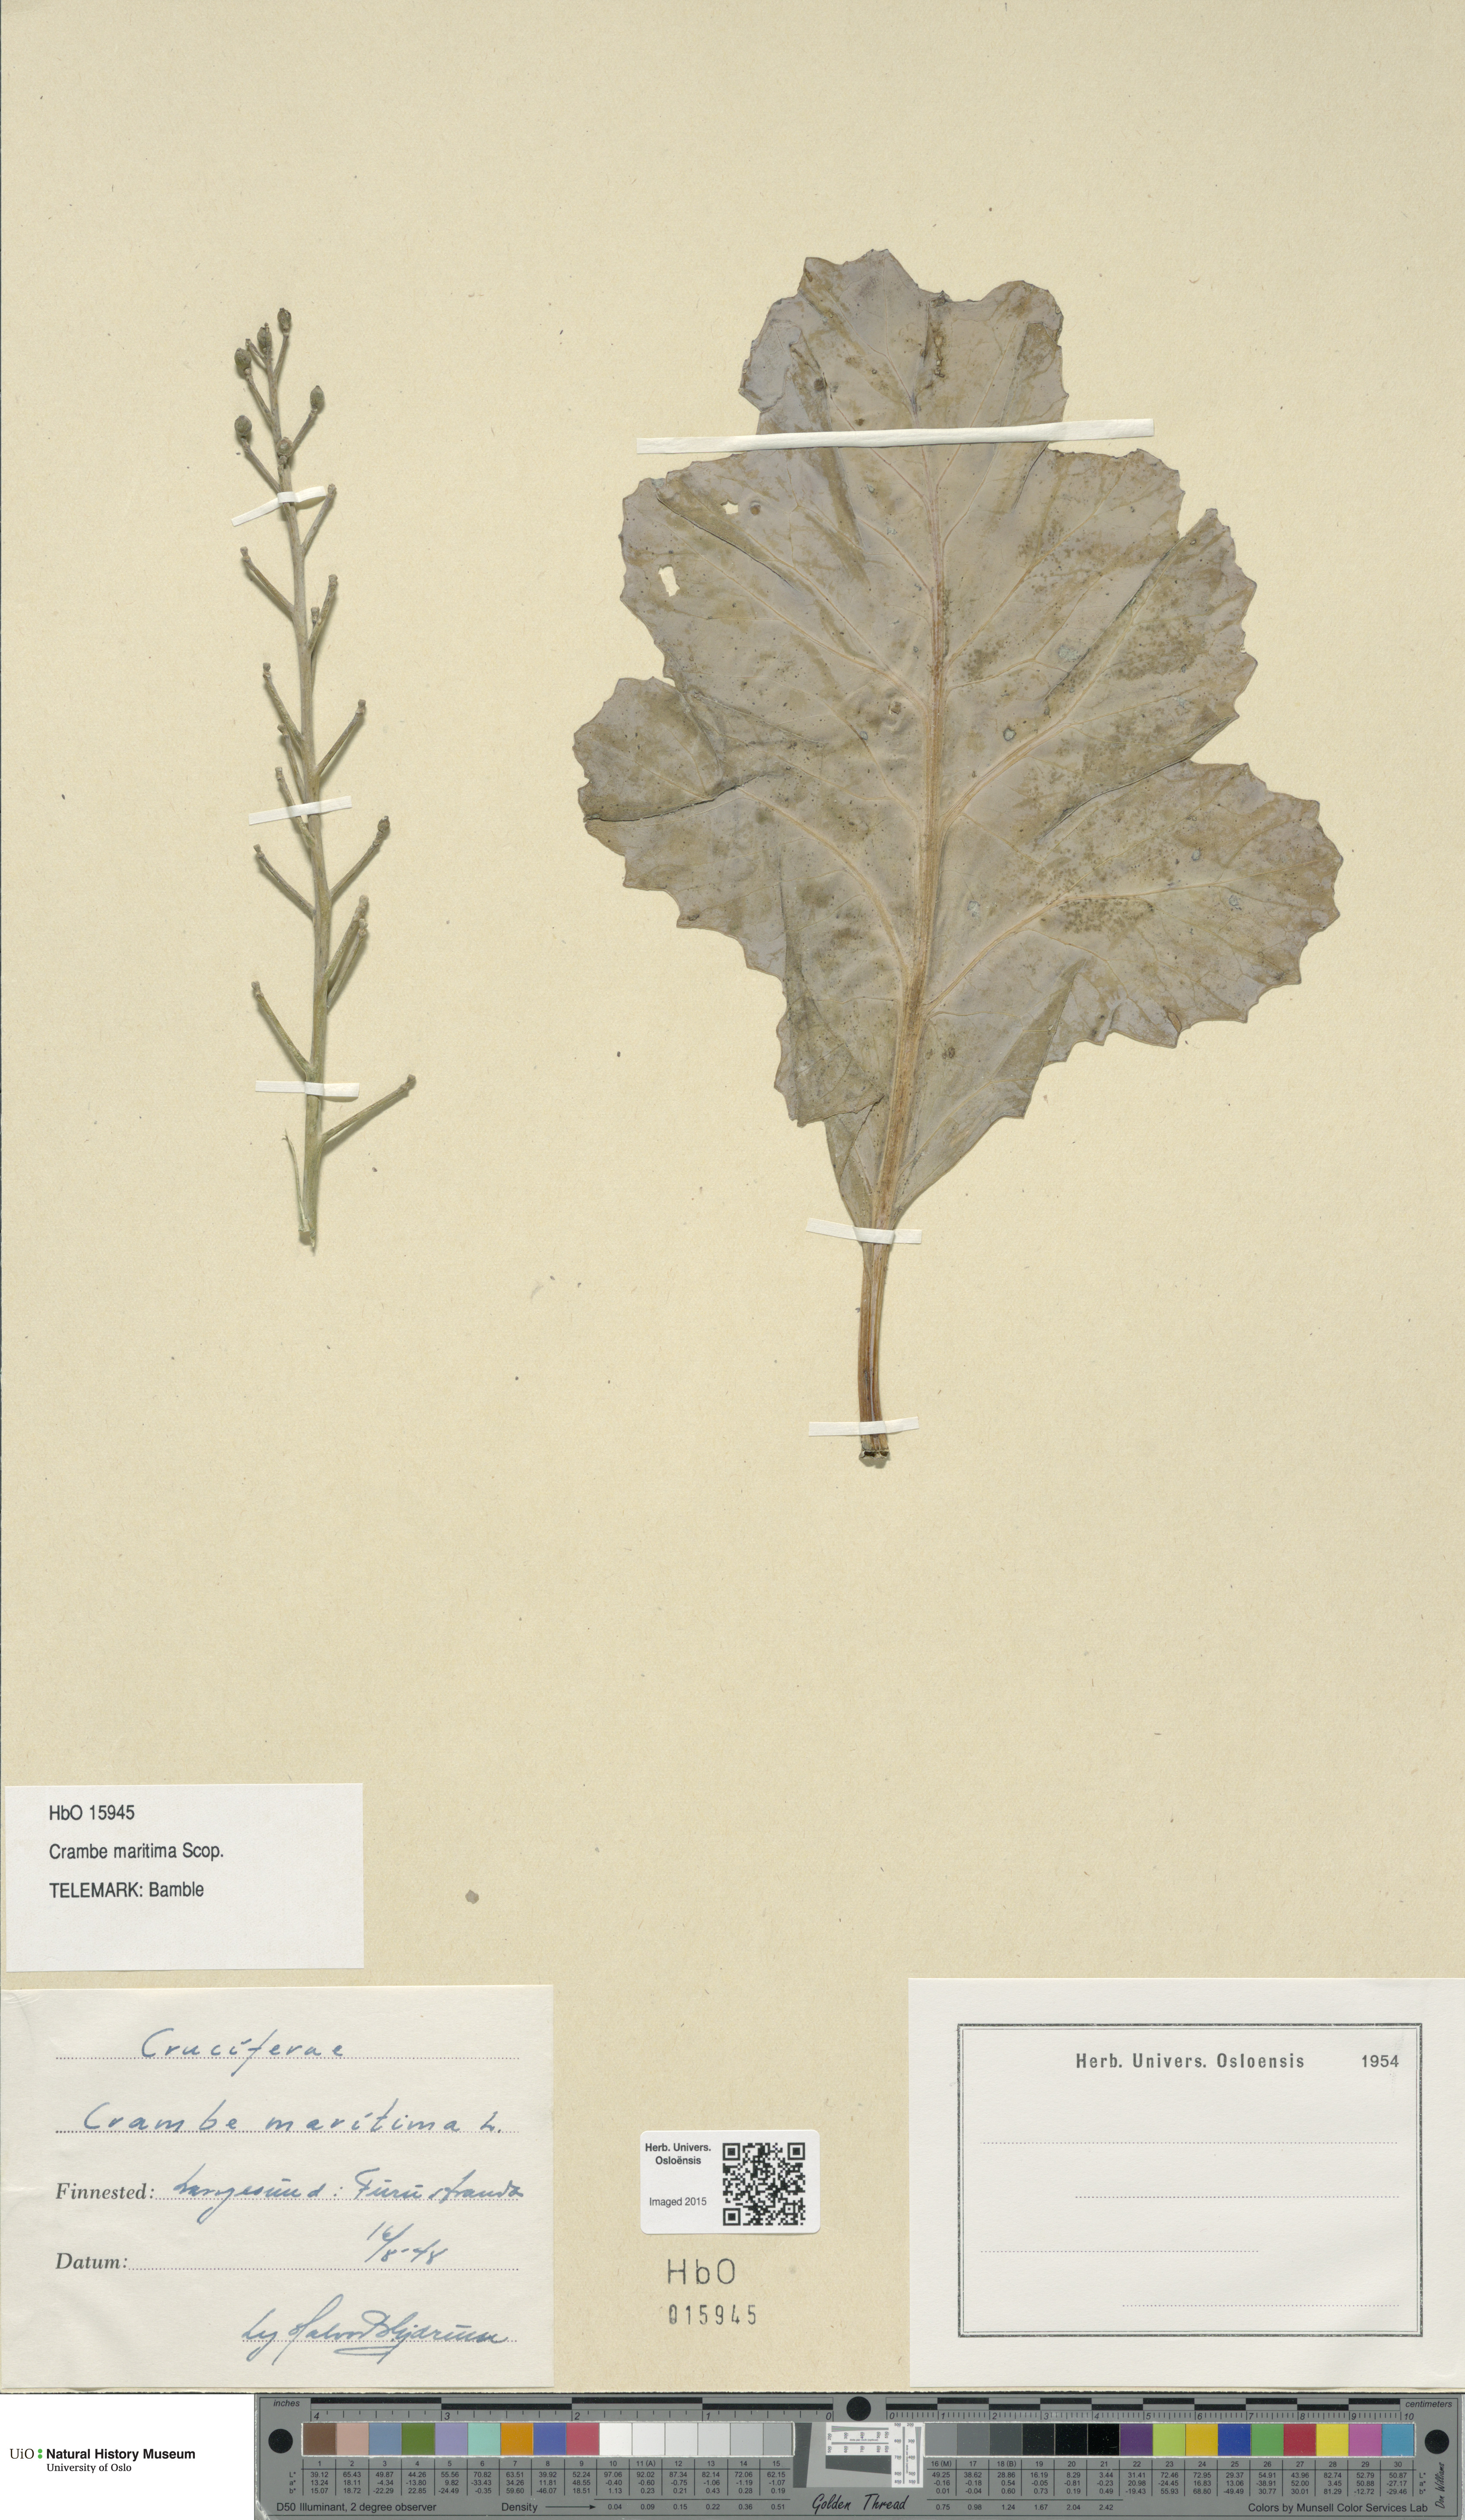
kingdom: Plantae
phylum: Tracheophyta
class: Magnoliopsida
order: Brassicales
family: Brassicaceae
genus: Crambe
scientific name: Crambe maritima
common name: Sea-kale
